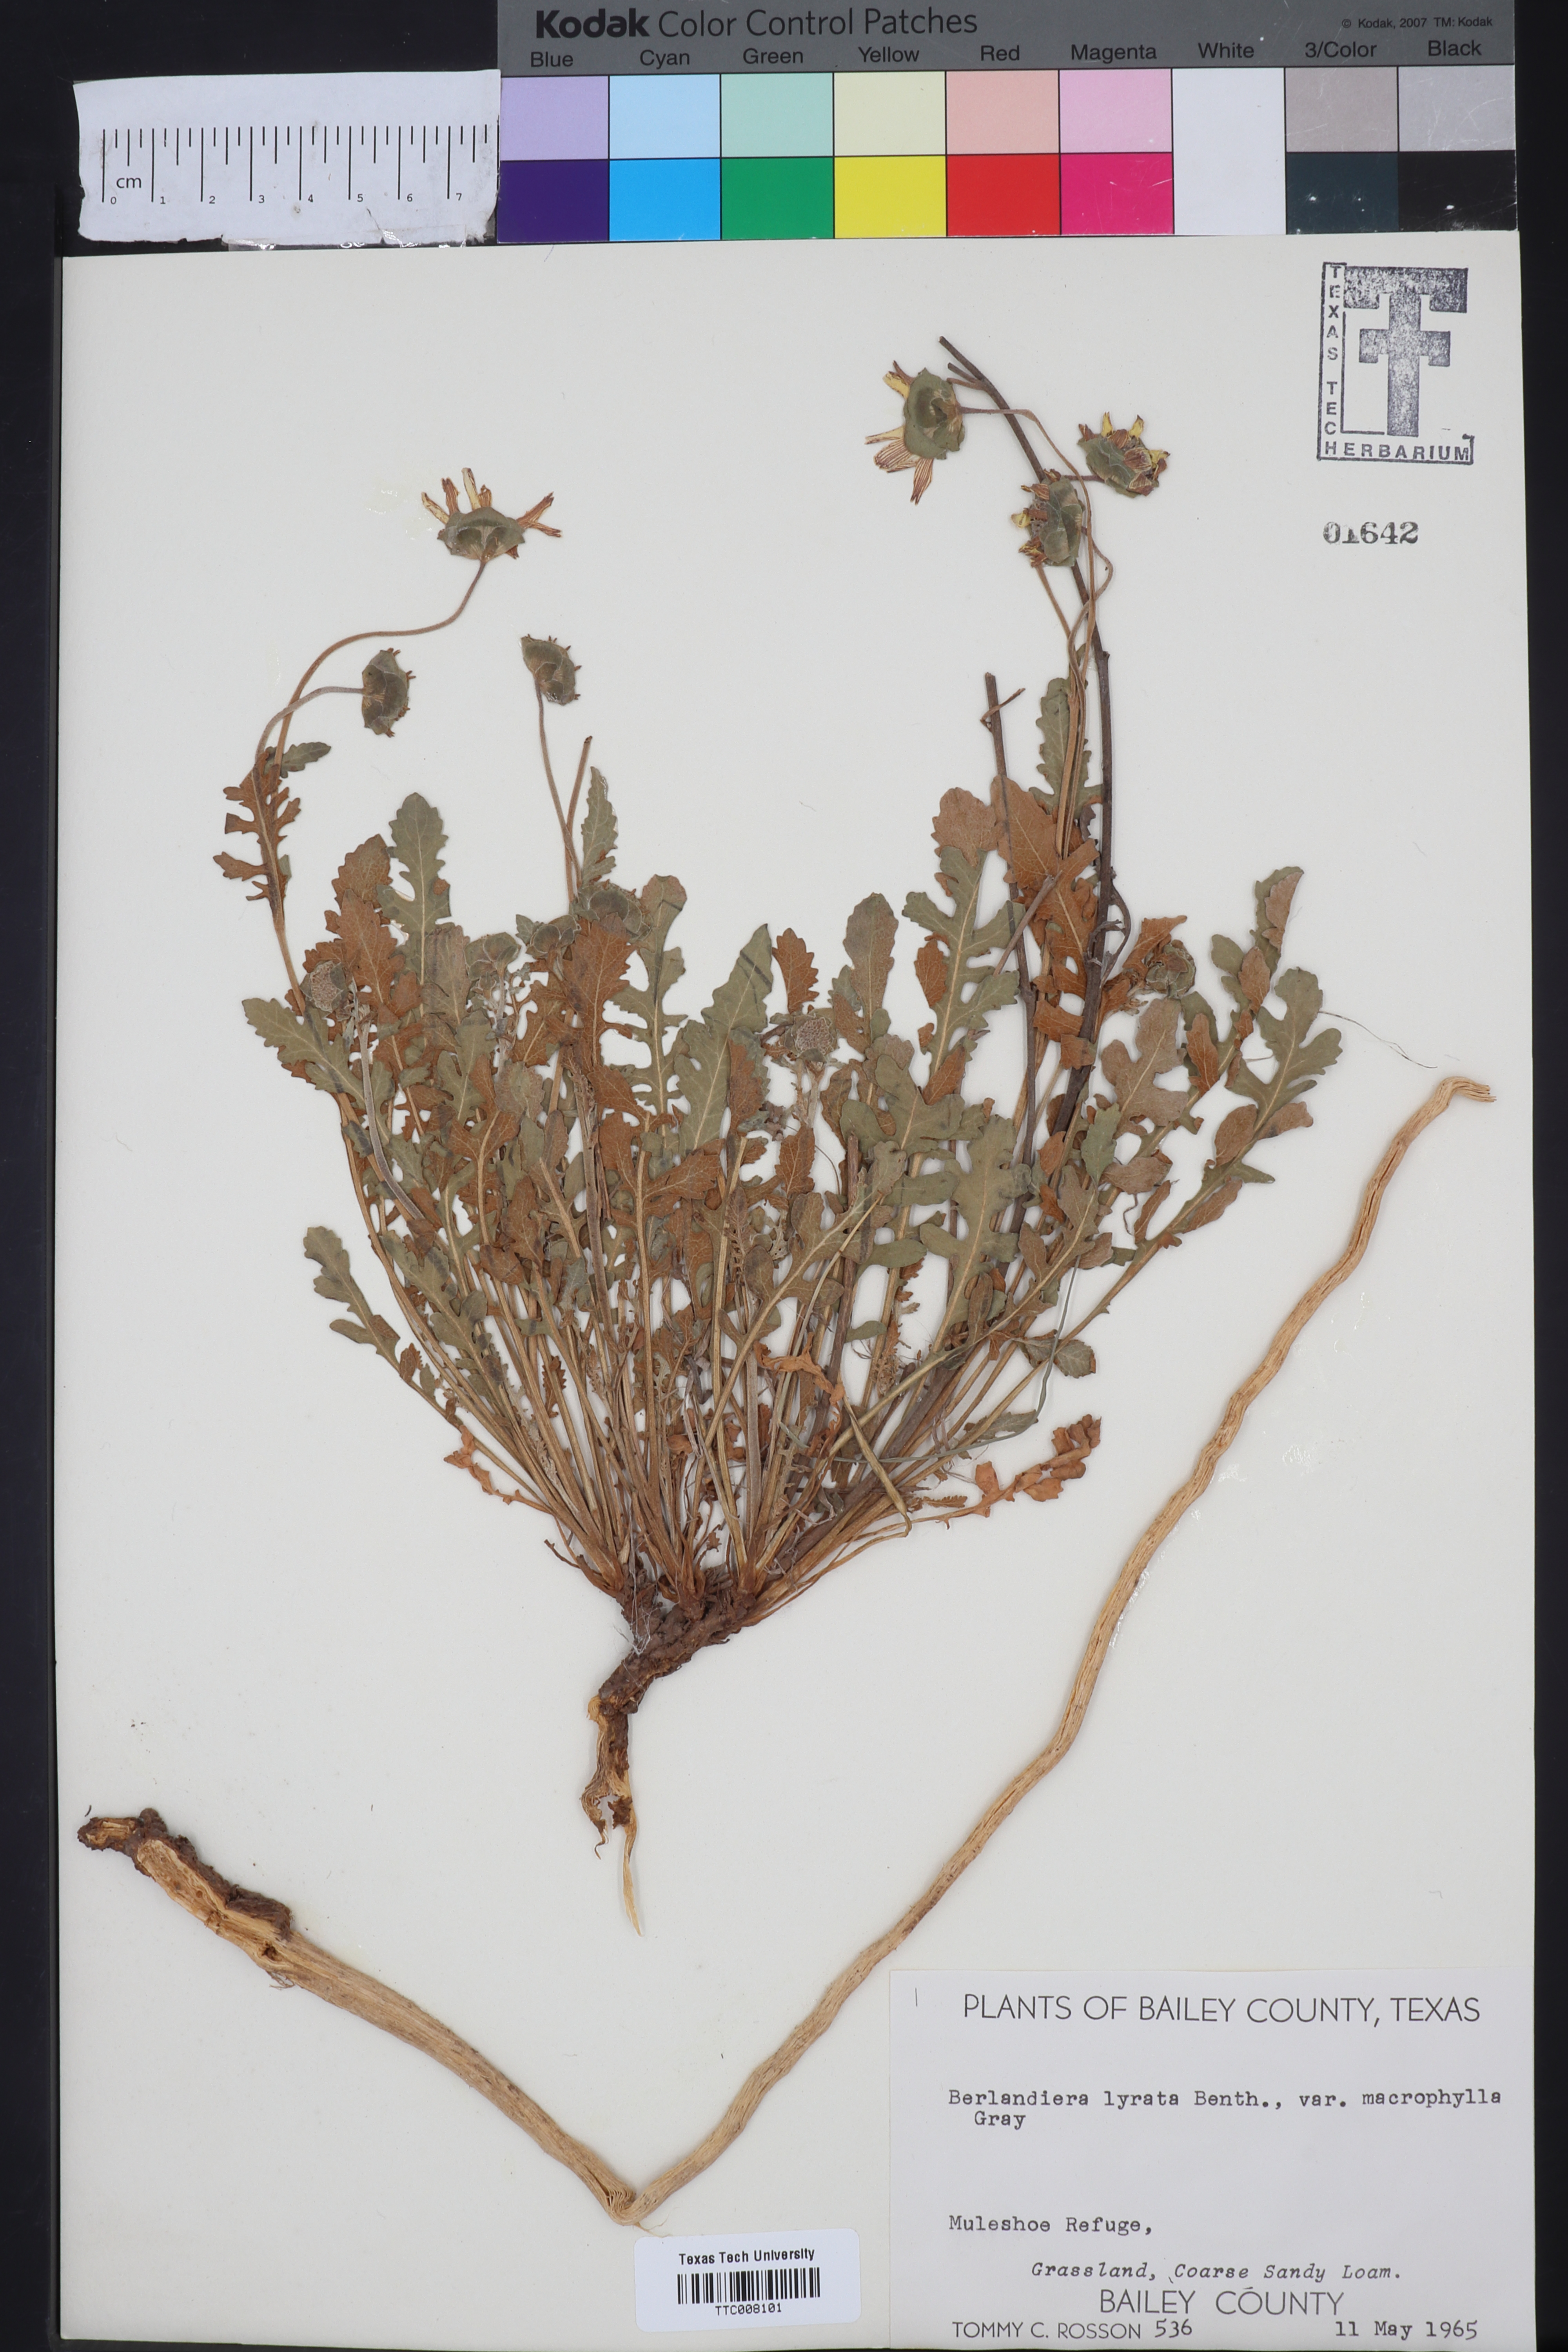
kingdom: Plantae
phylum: Tracheophyta
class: Magnoliopsida
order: Asterales
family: Asteraceae
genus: Berlandiera
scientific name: Berlandiera macrophylla
